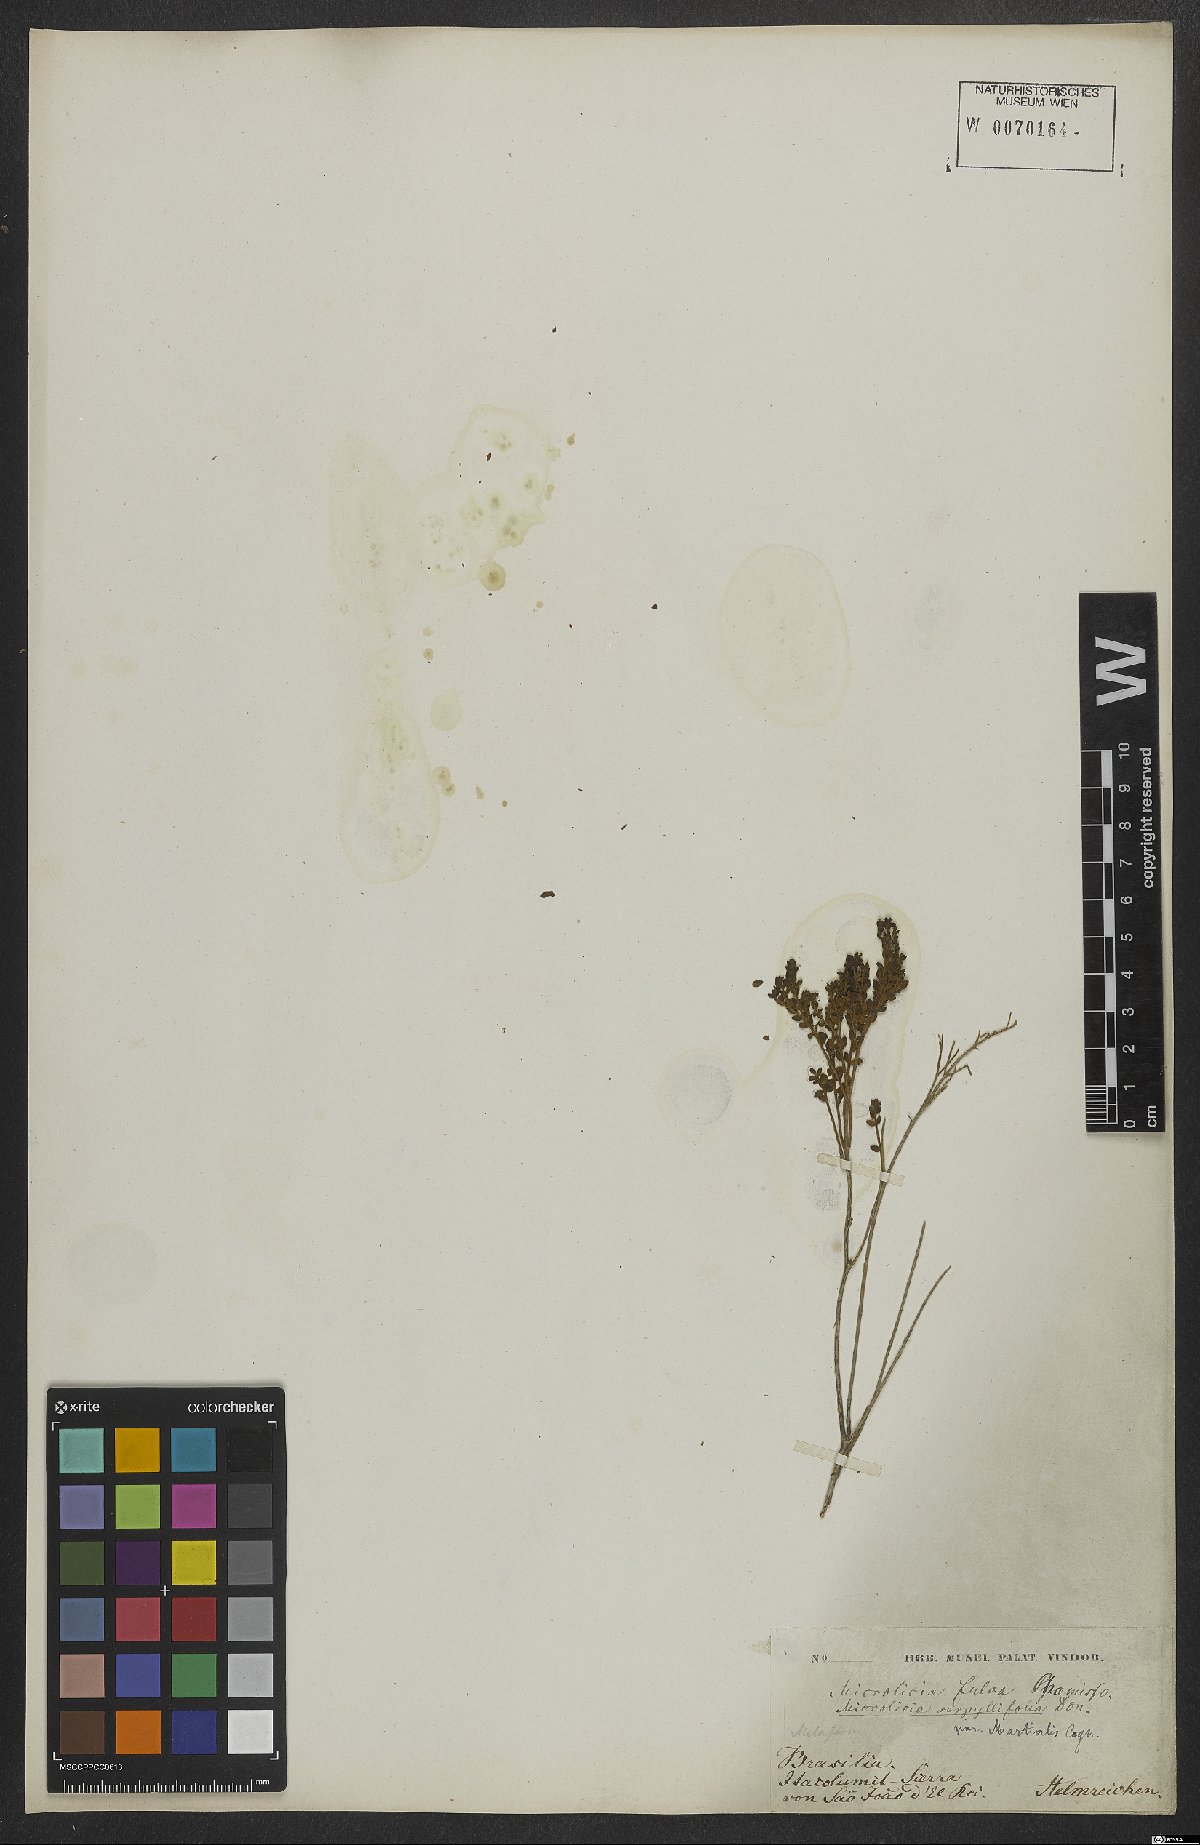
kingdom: Plantae
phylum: Tracheophyta
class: Magnoliopsida
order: Myrtales
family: Melastomataceae
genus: Microlicia
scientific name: Microlicia fulva
